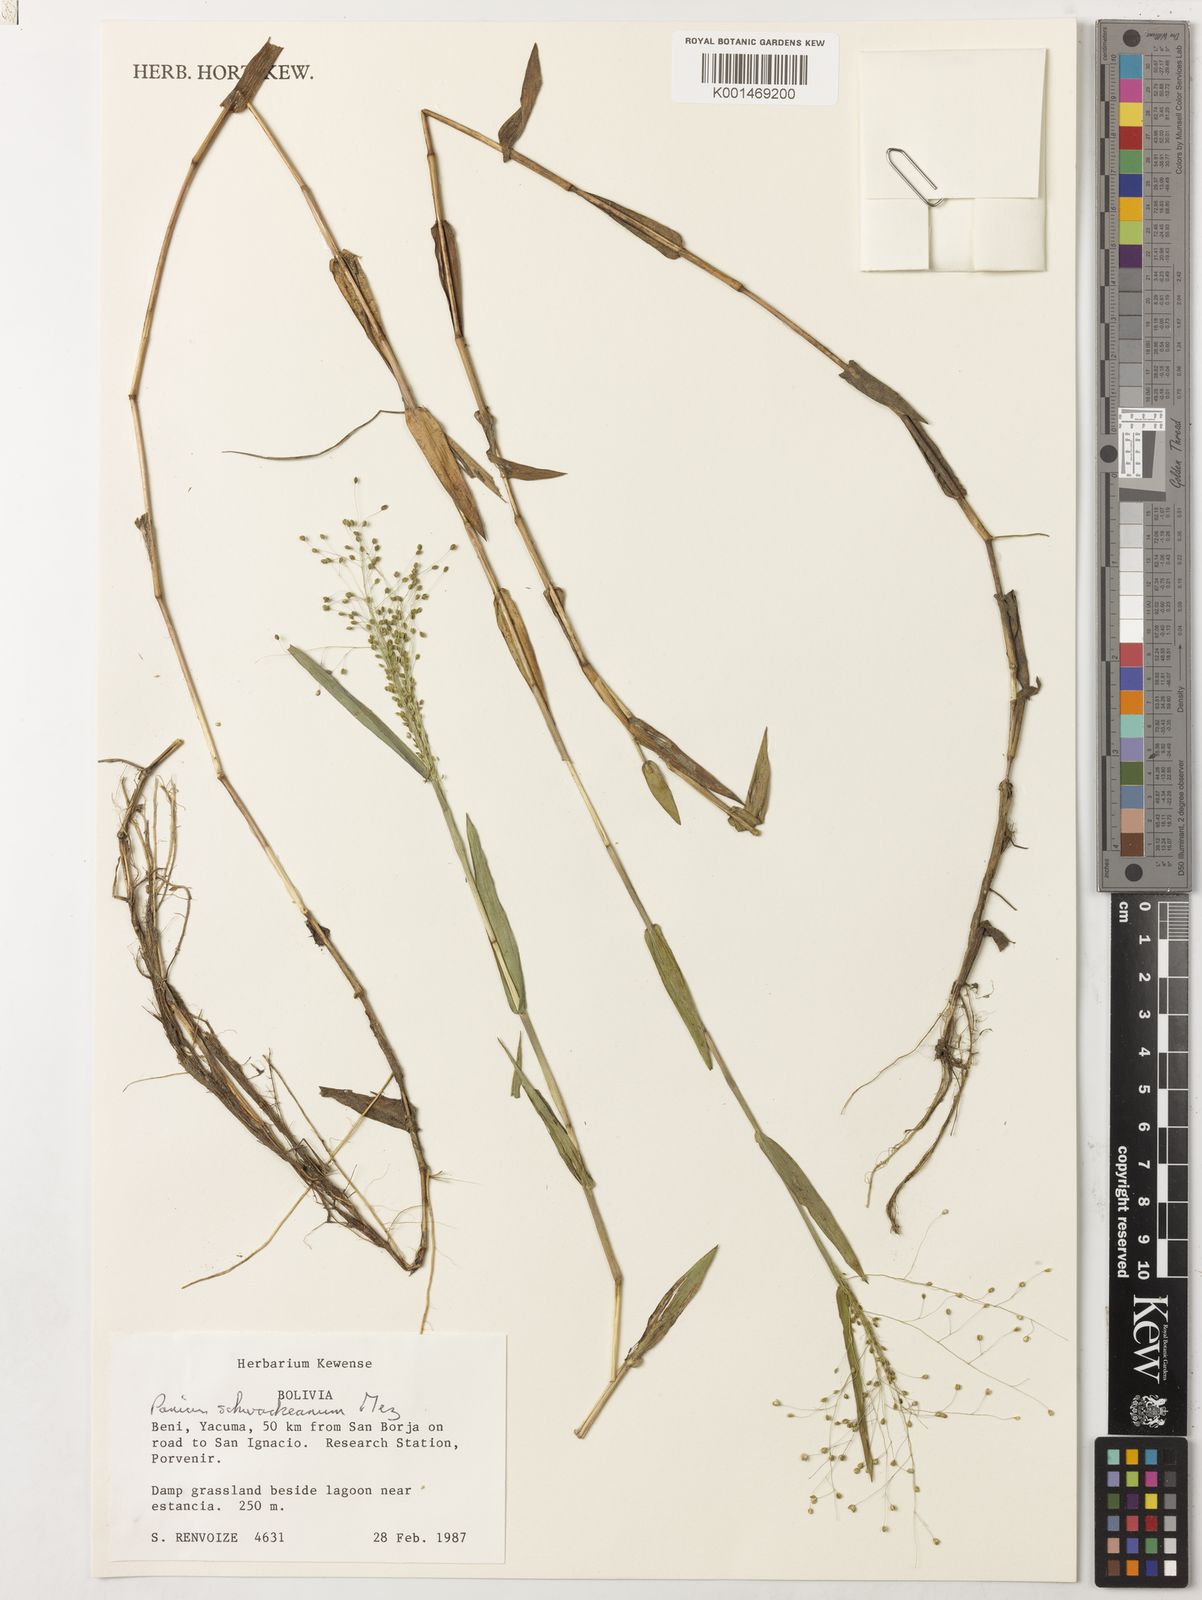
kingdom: Plantae
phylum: Tracheophyta
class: Liliopsida
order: Poales
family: Poaceae
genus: Trichanthecium
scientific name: Trichanthecium schwackeanum
